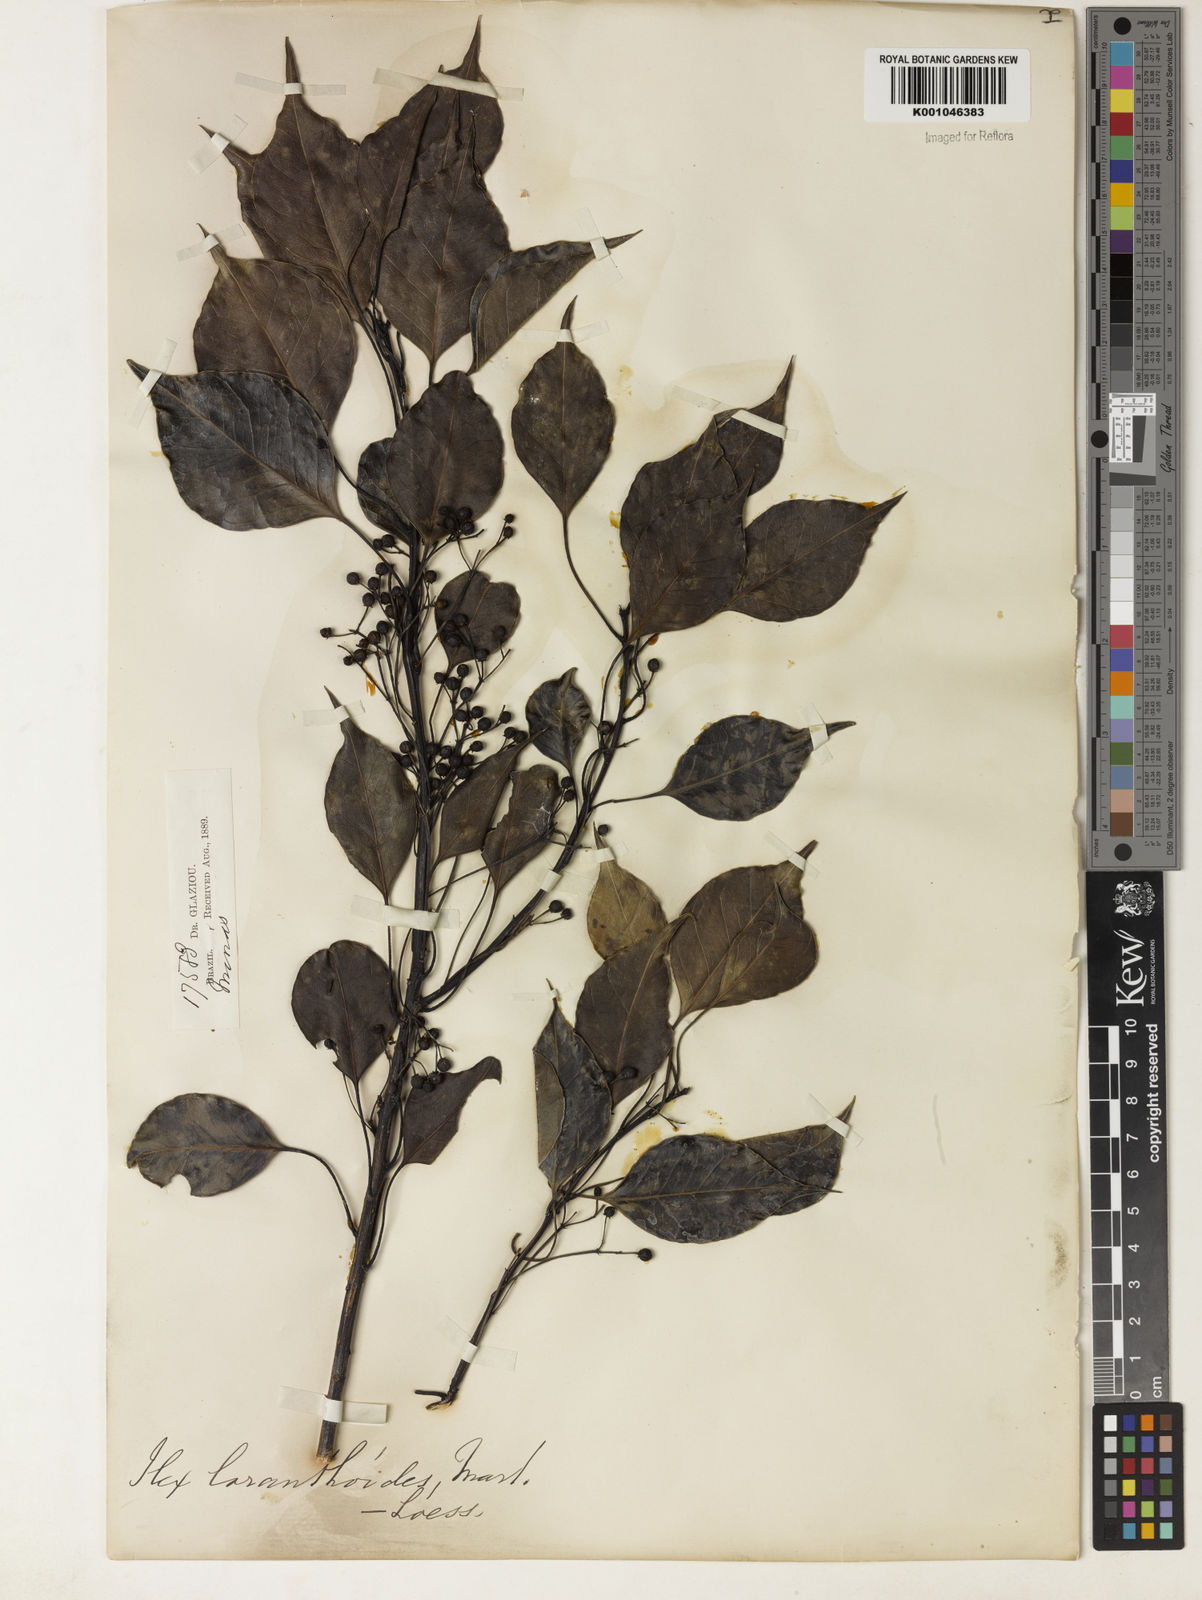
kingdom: Plantae
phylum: Tracheophyta
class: Magnoliopsida
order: Aquifoliales
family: Aquifoliaceae
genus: Ilex
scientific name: Ilex loranthoides
